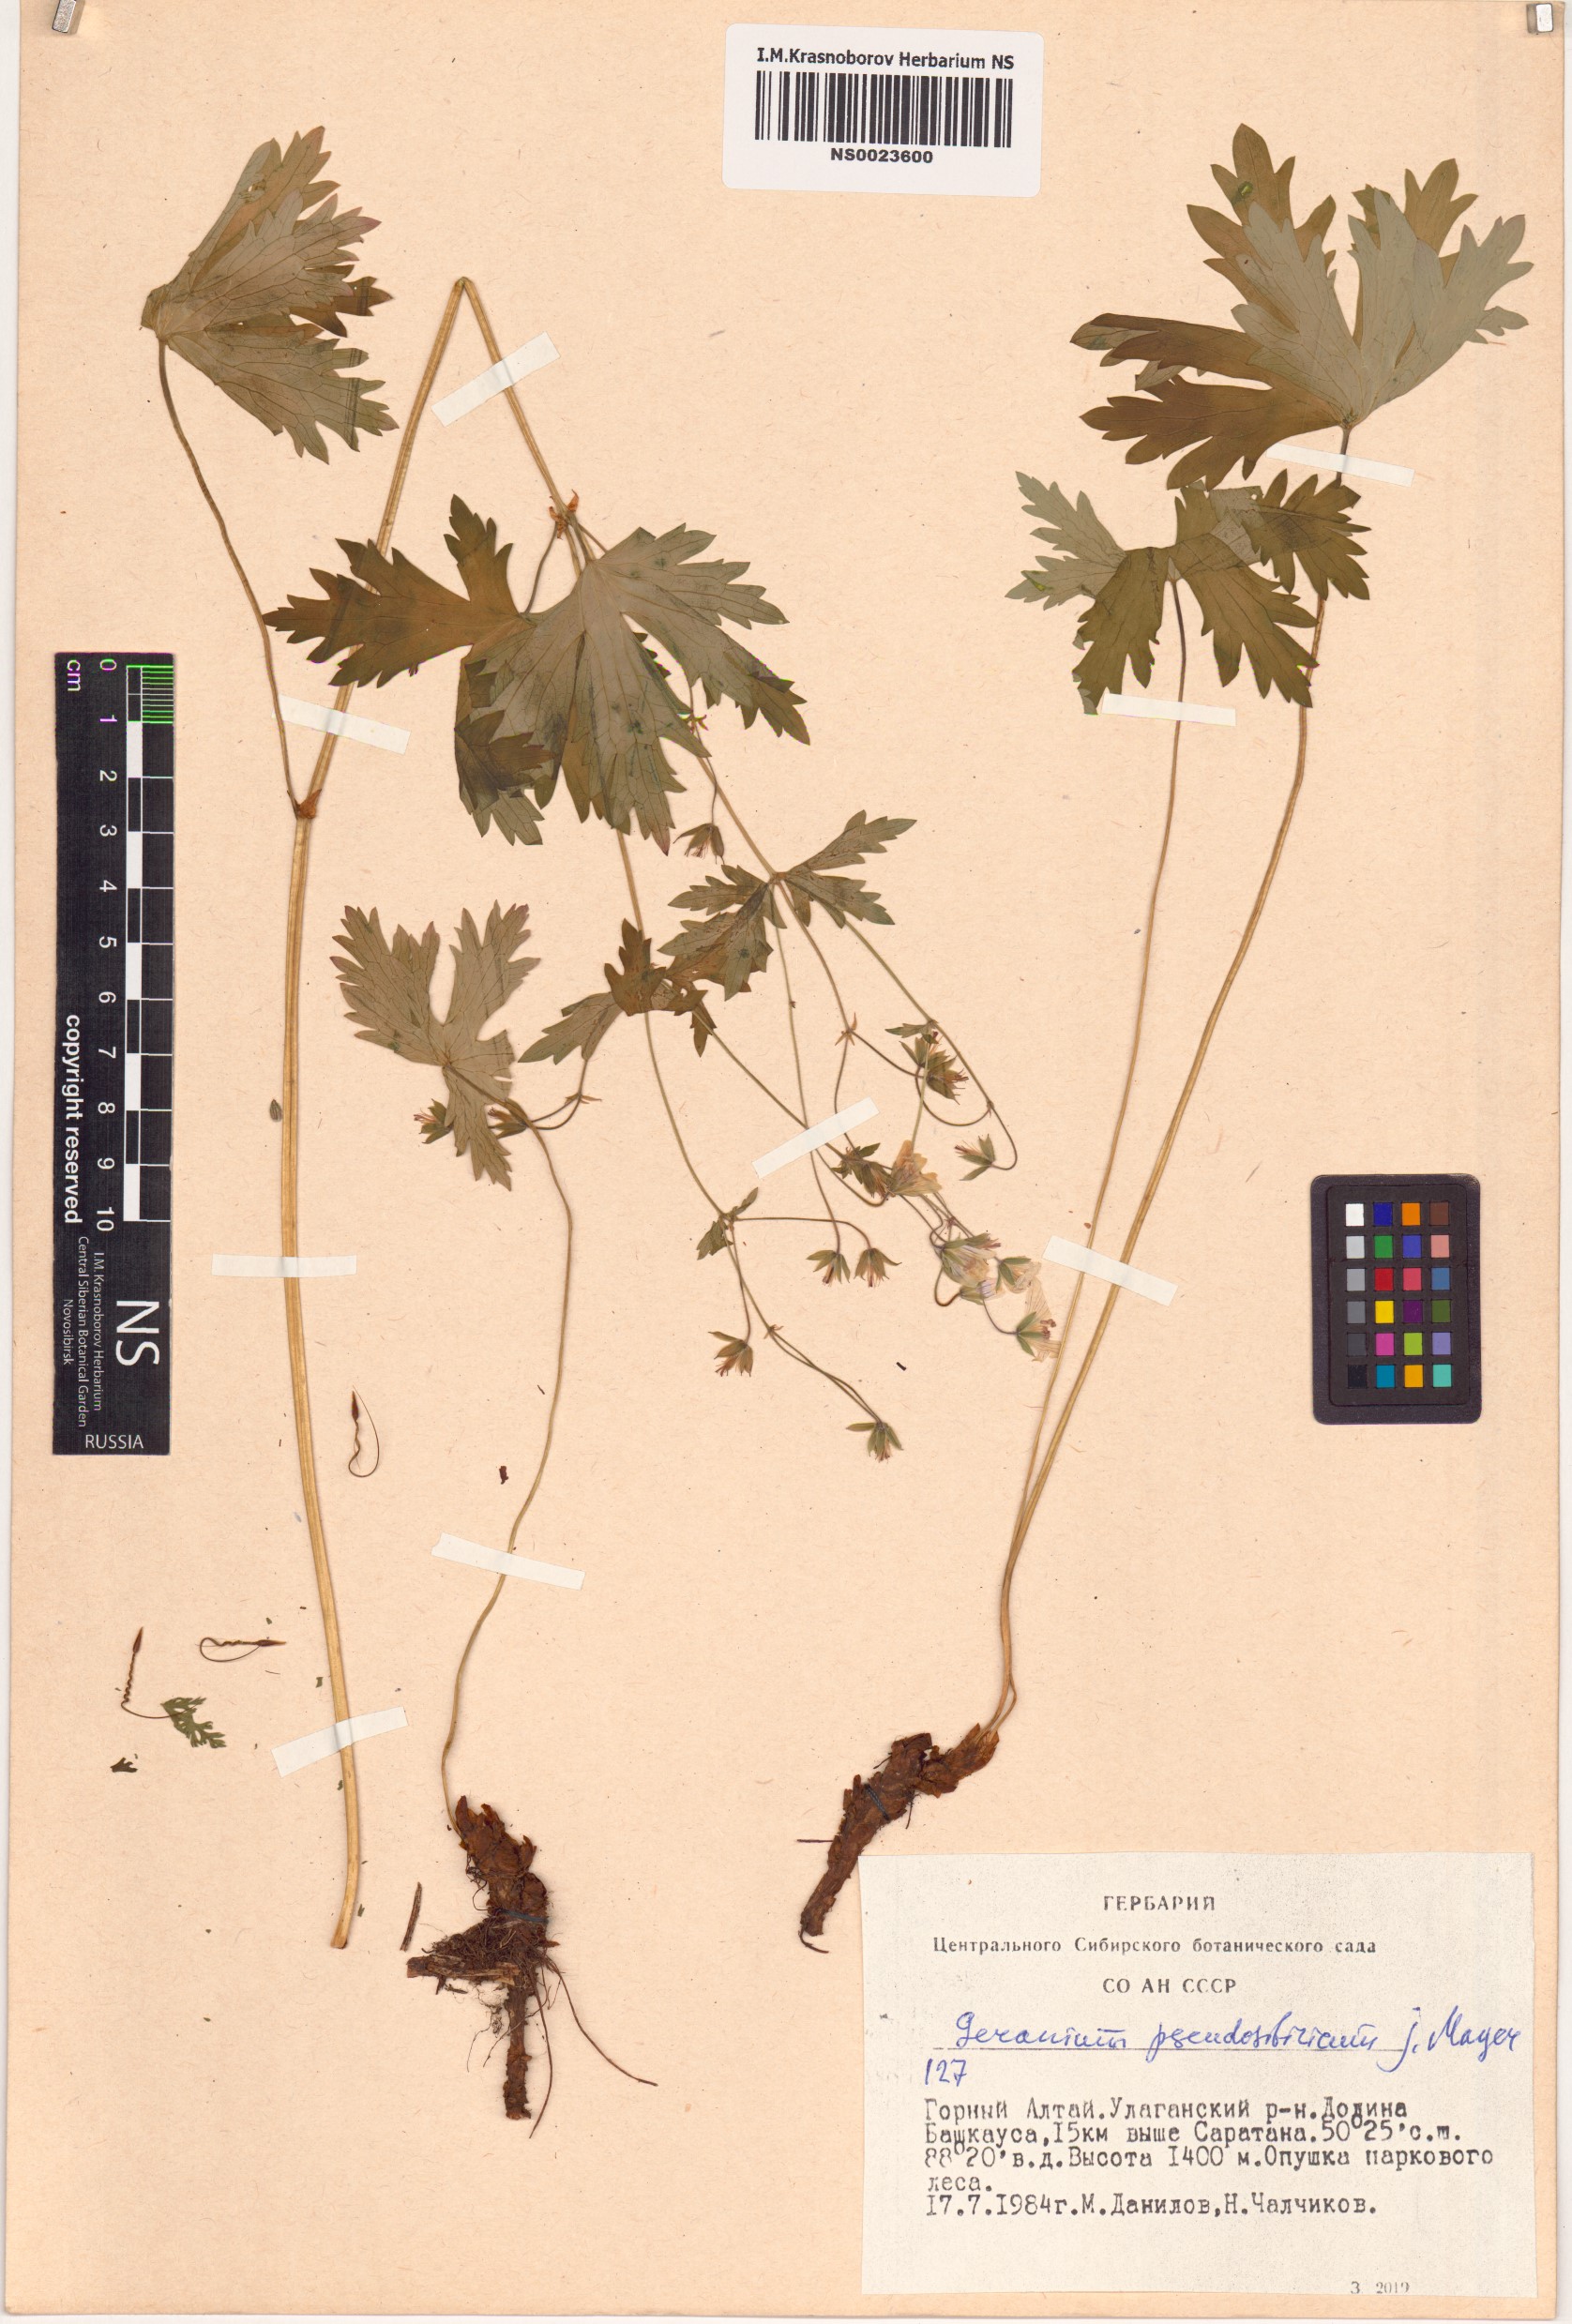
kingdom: Plantae
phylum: Tracheophyta
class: Magnoliopsida
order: Geraniales
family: Geraniaceae
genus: Geranium
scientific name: Geranium pseudosibiricum
